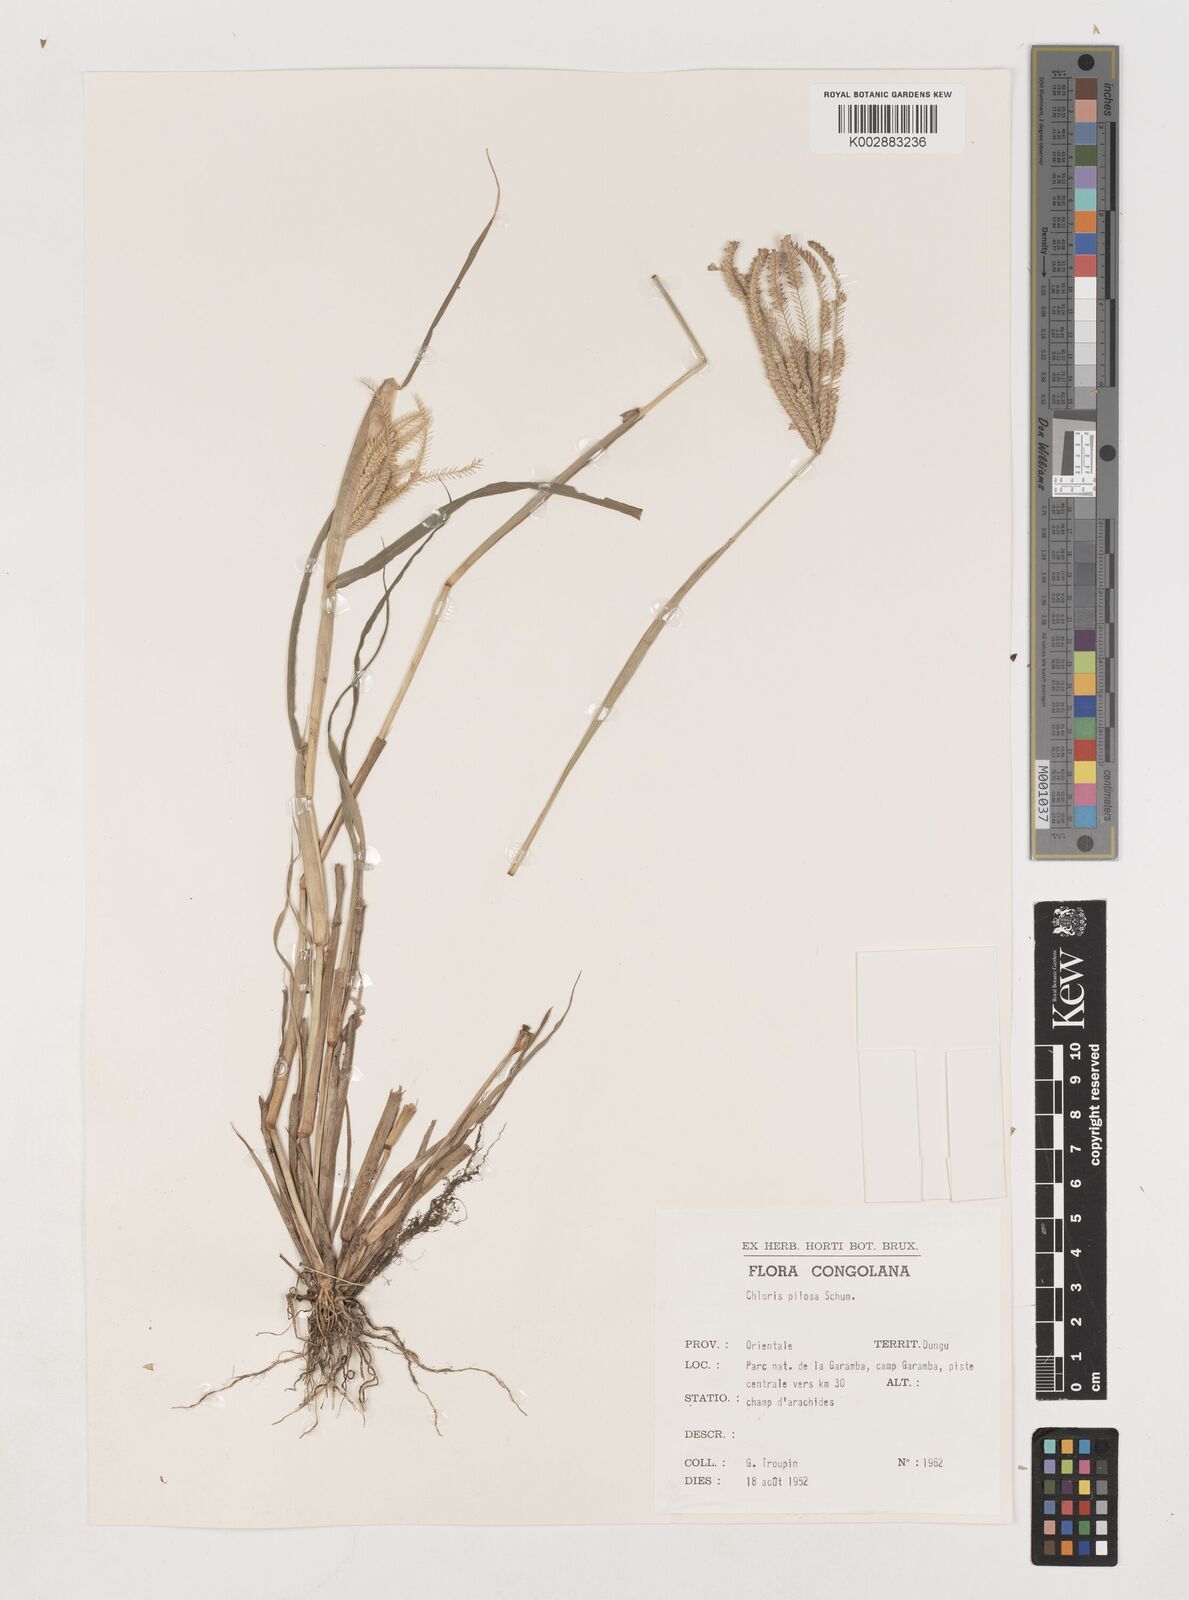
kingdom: Plantae
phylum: Tracheophyta
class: Liliopsida
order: Poales
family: Poaceae
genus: Chloris
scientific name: Chloris pilosa
